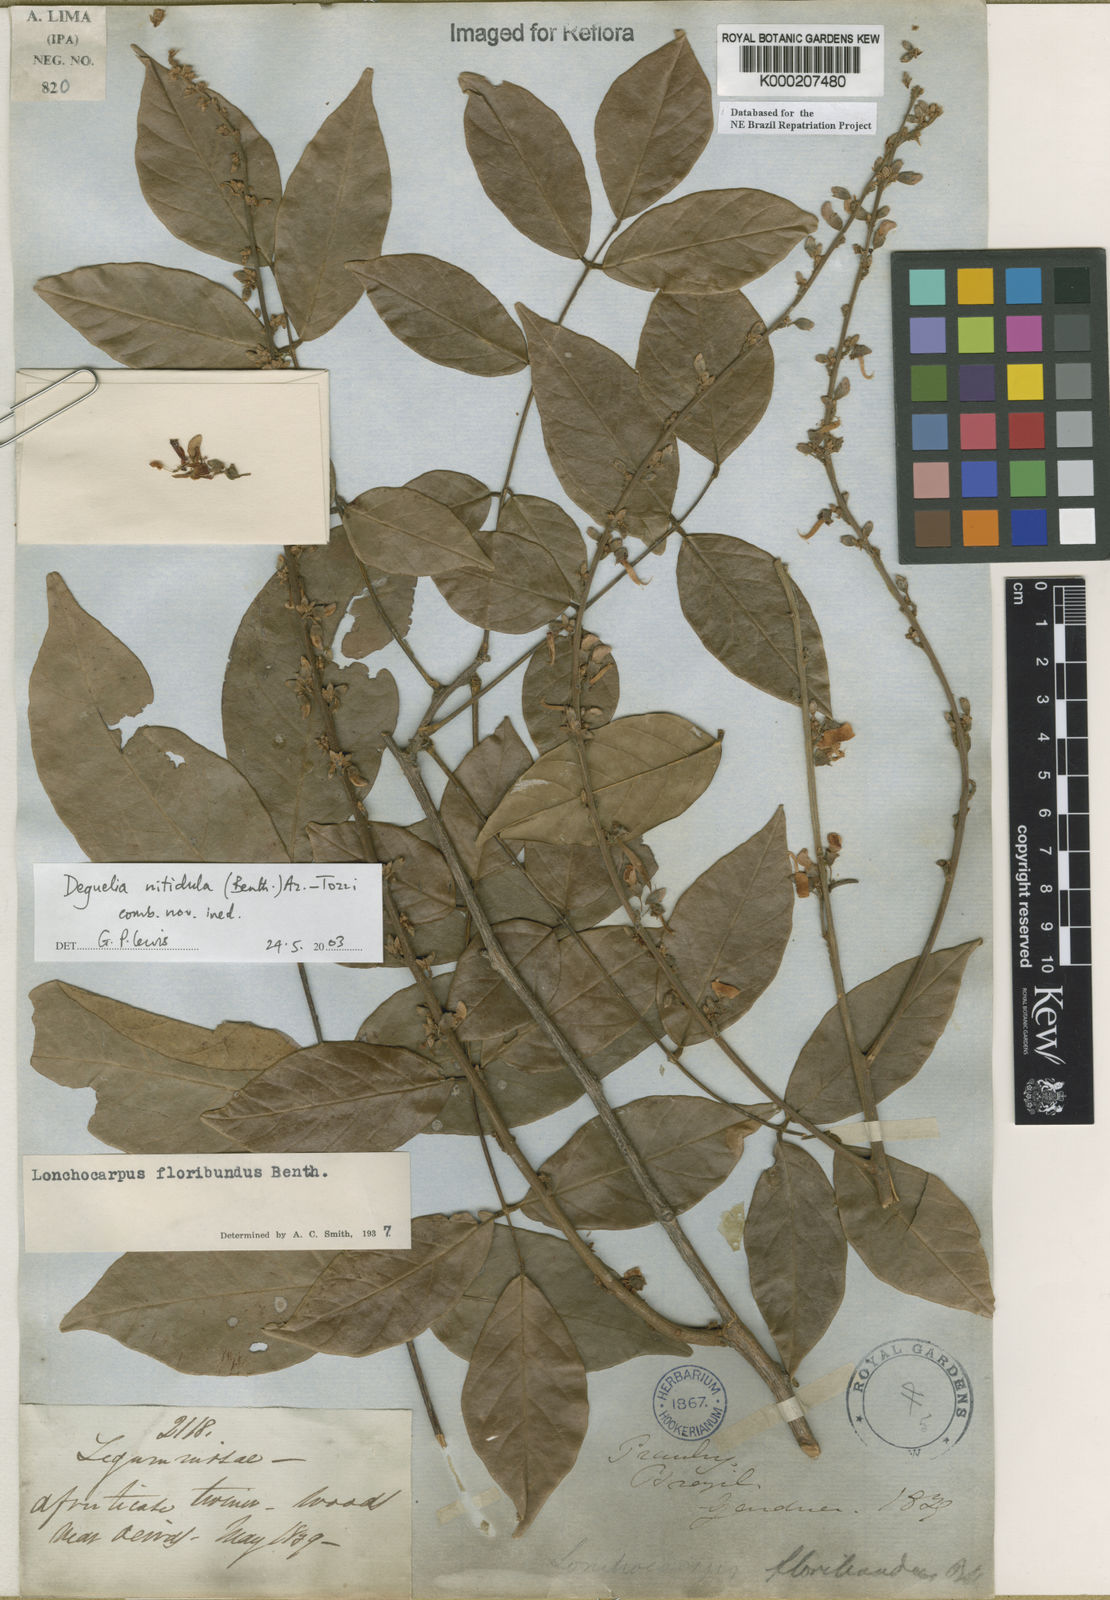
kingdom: Plantae
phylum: Tracheophyta
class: Magnoliopsida
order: Fabales
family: Fabaceae
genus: Deguelia
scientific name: Deguelia
